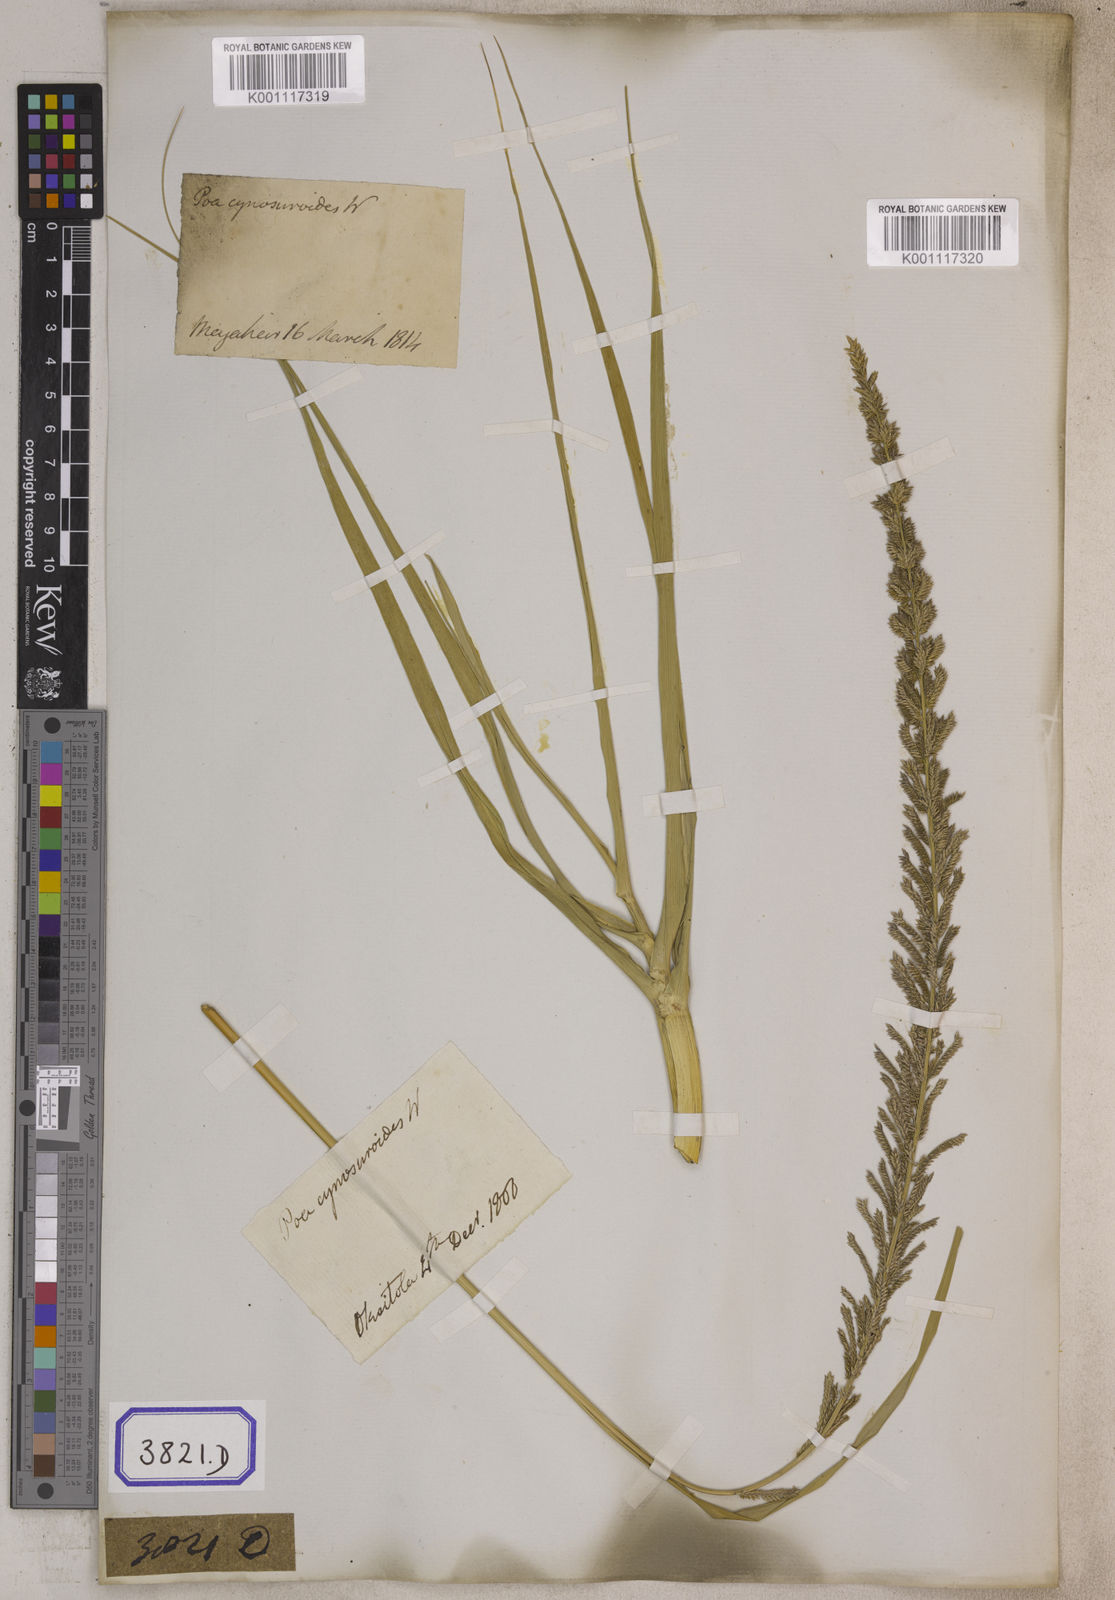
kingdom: Plantae
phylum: Tracheophyta
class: Liliopsida
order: Poales
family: Poaceae
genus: Eragrostis
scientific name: Eragrostis
